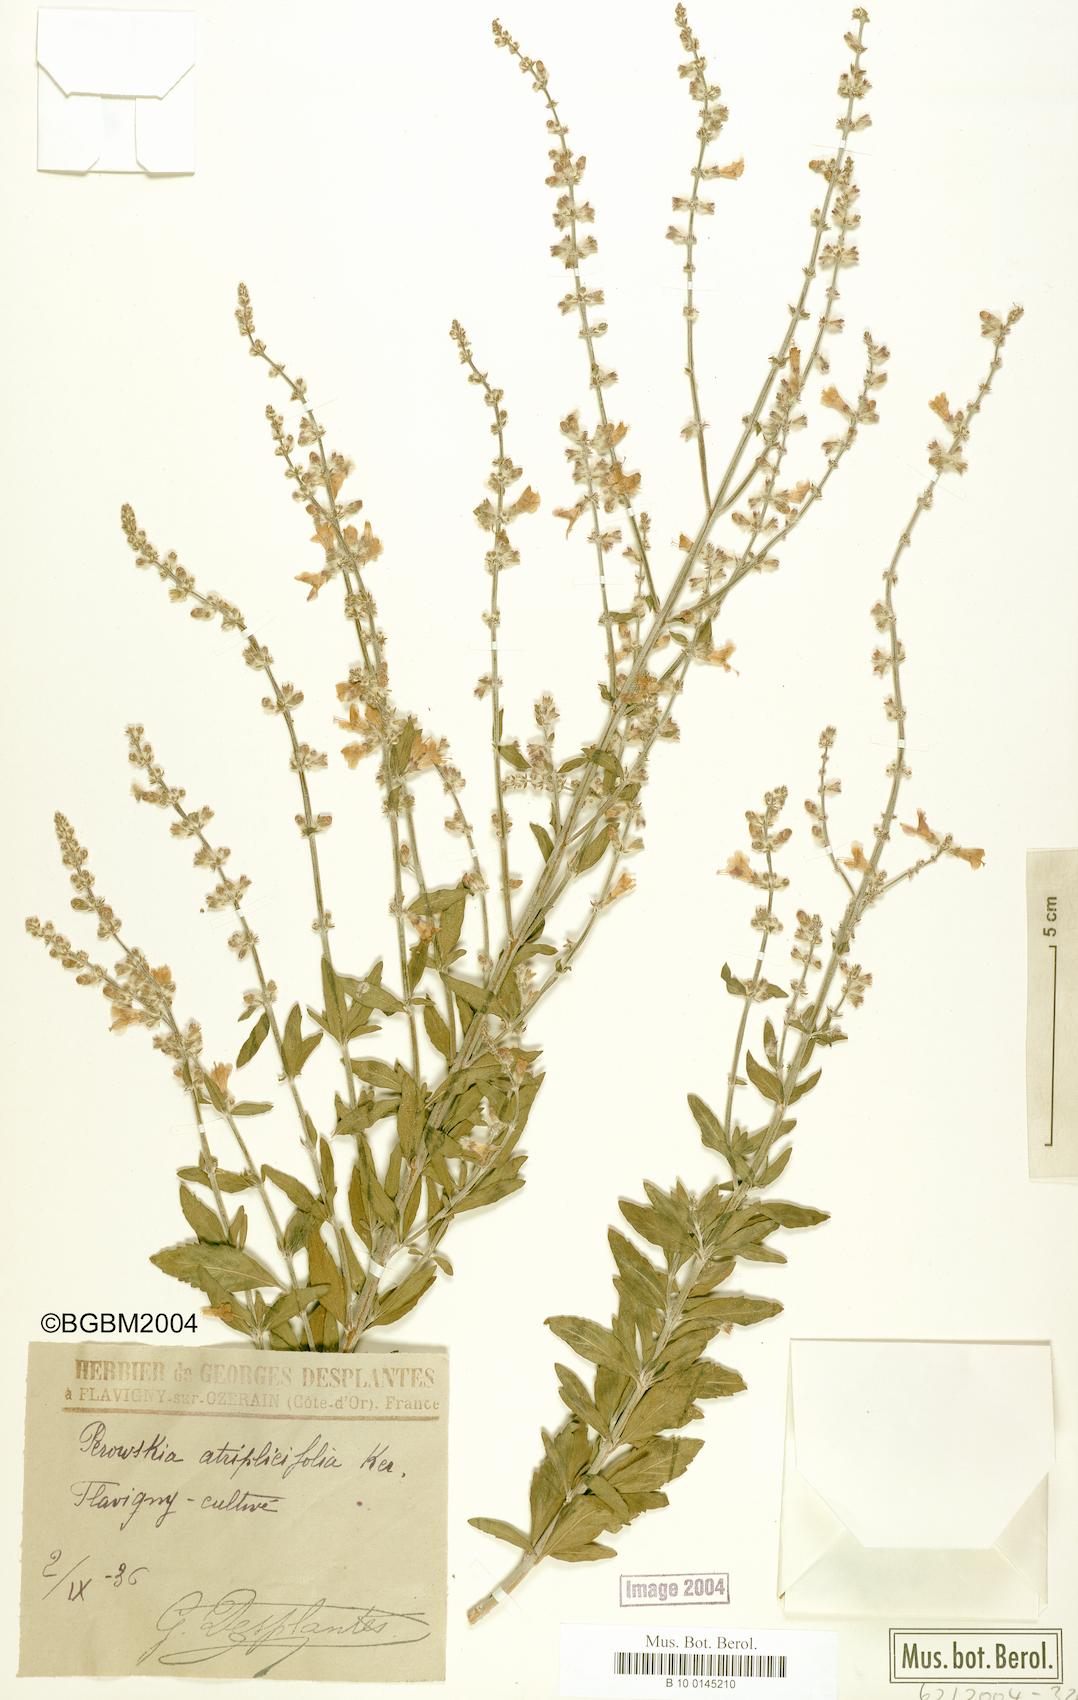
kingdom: Plantae
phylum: Tracheophyta
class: Magnoliopsida
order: Lamiales
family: Lamiaceae
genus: Salvia
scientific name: Salvia yangii
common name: Russian sage
